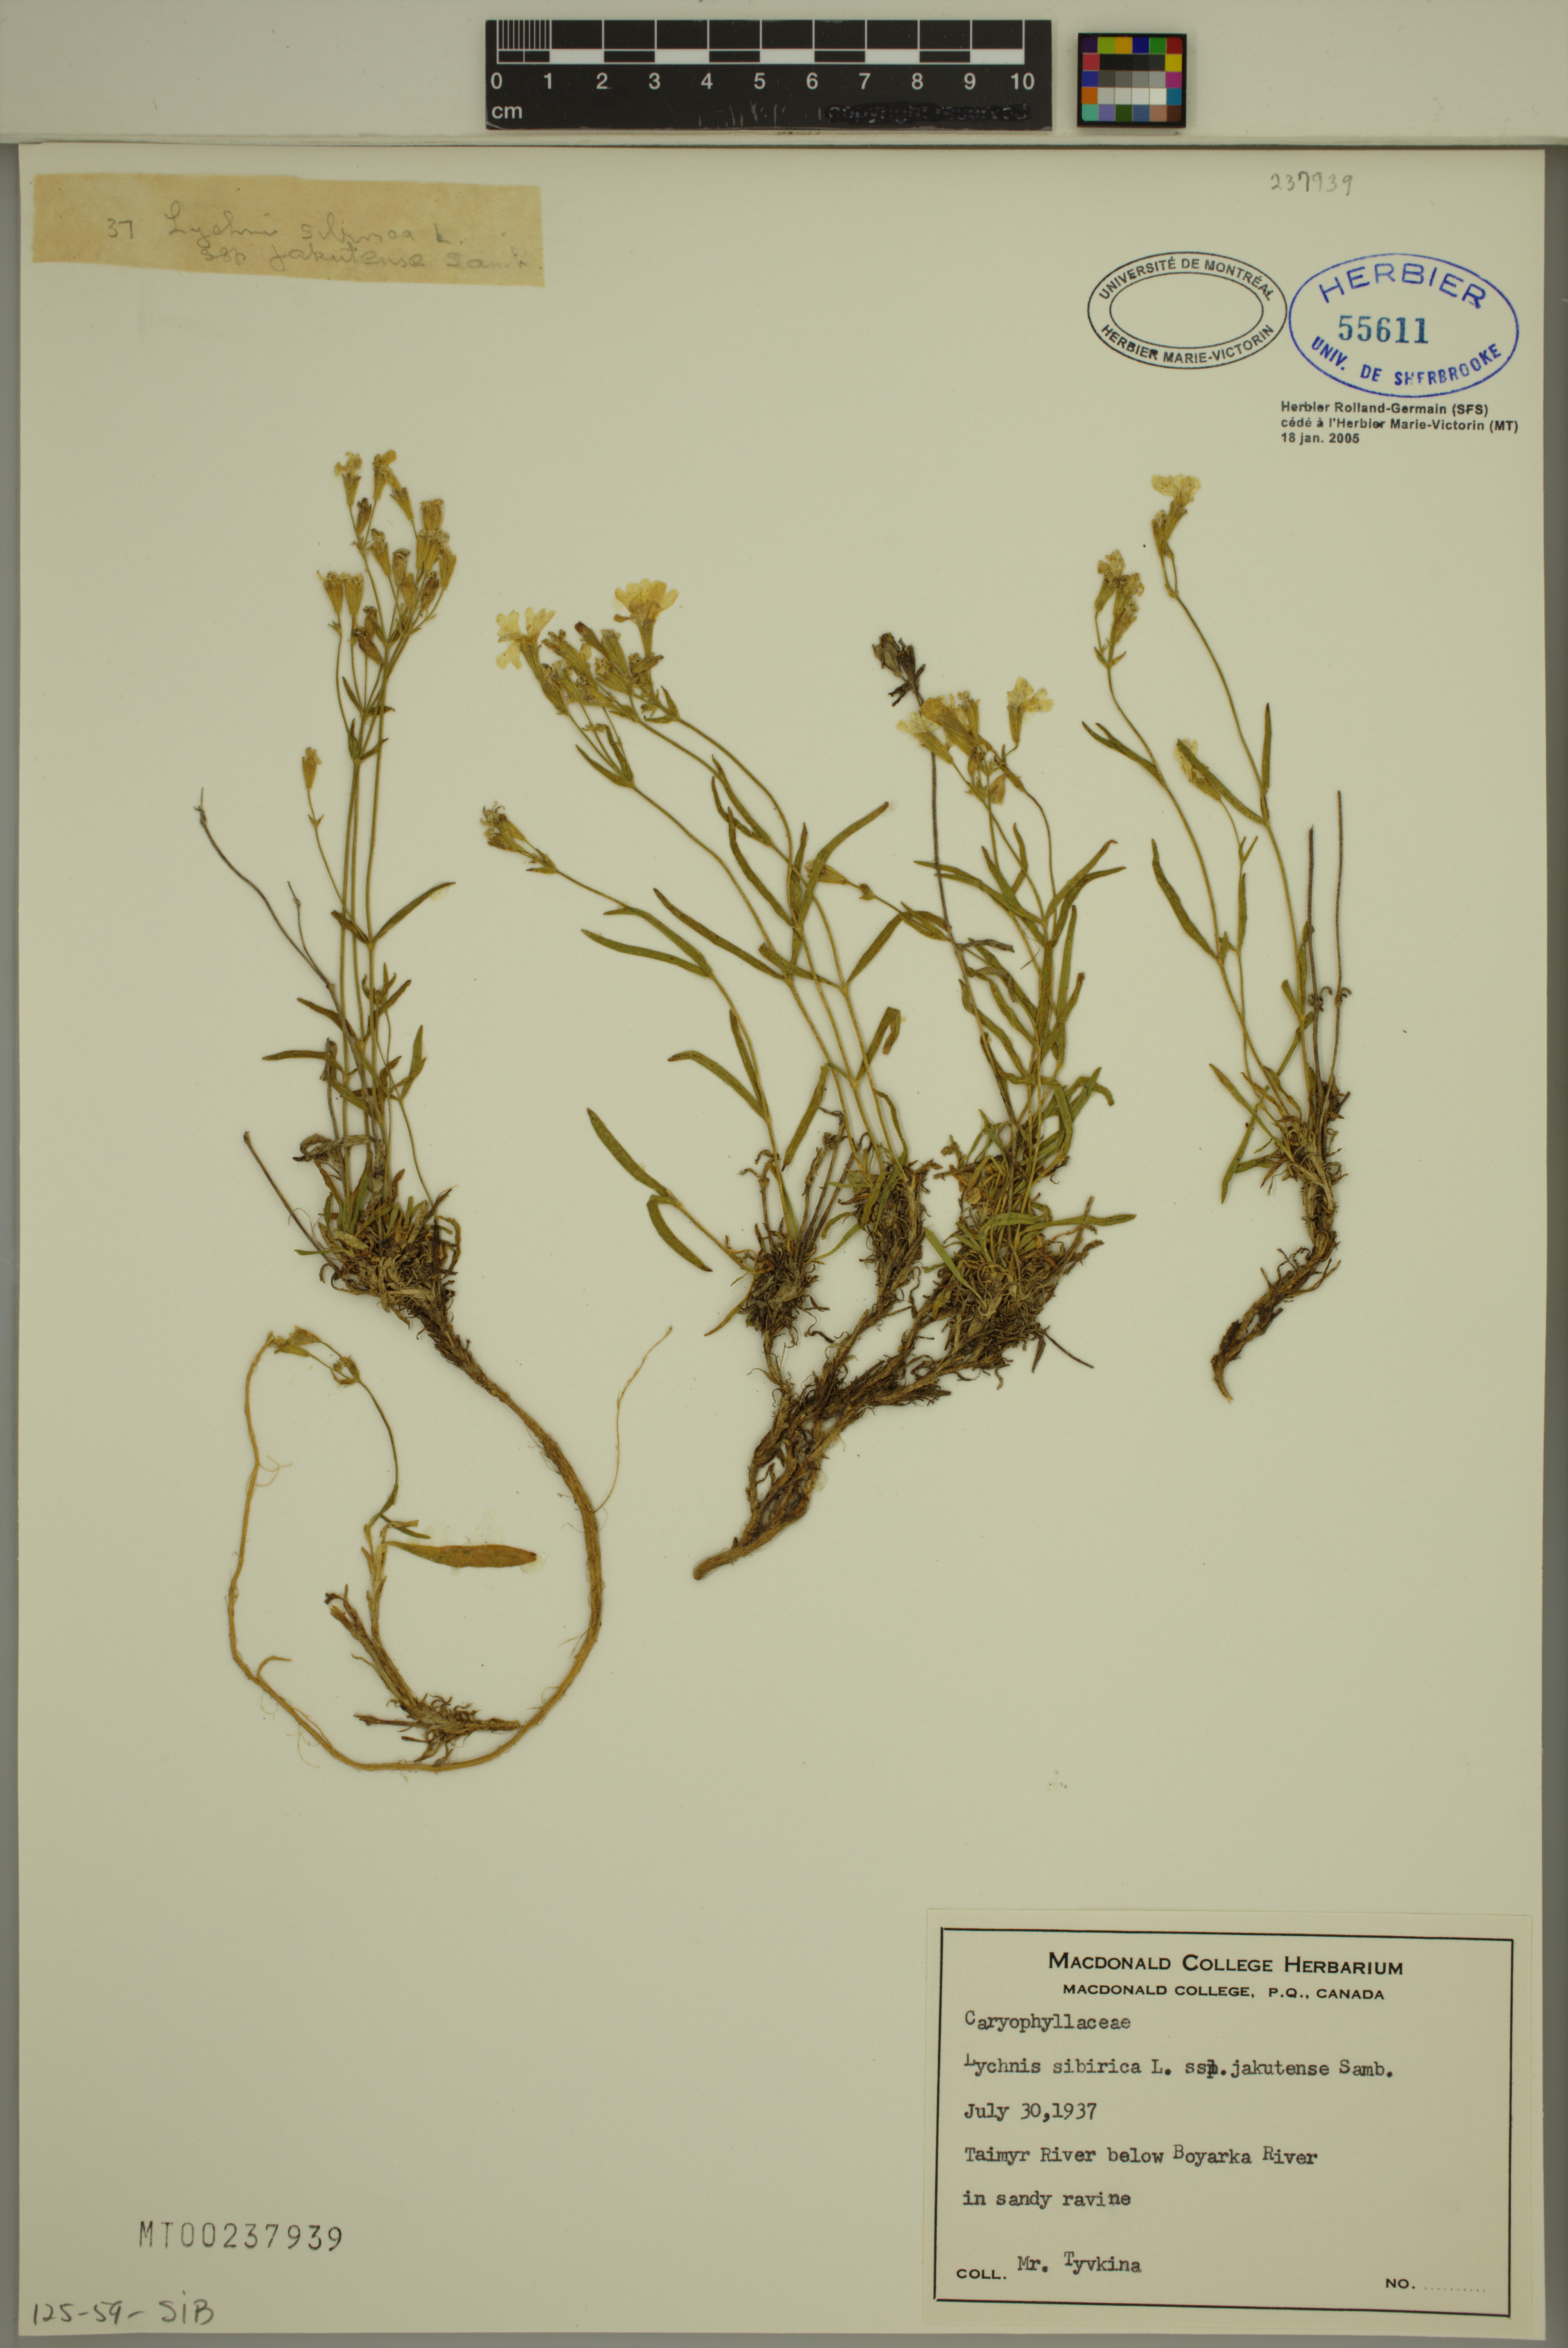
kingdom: Plantae
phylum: Tracheophyta
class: Magnoliopsida
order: Caryophyllales
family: Caryophyllaceae
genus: Silene
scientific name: Silene samojedorum
